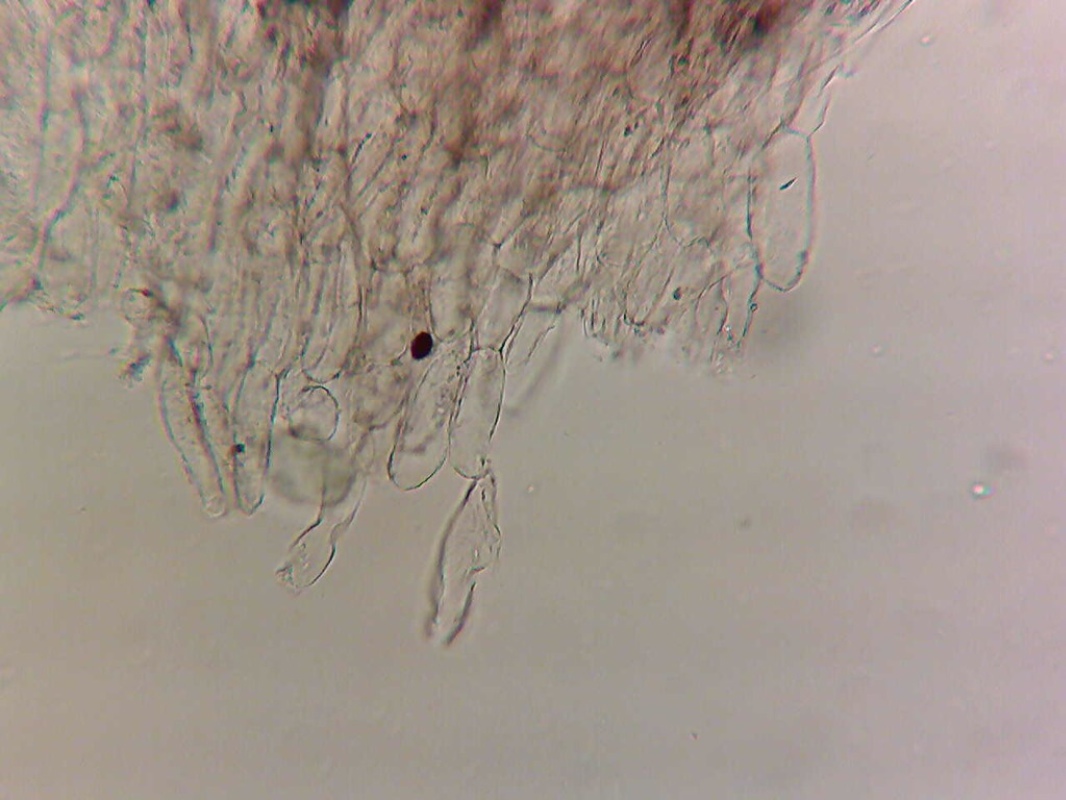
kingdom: Fungi
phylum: Basidiomycota
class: Agaricomycetes
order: Agaricales
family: Psathyrellaceae
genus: Coprinopsis
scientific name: Coprinopsis cinerea
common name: mødding-blækhat
